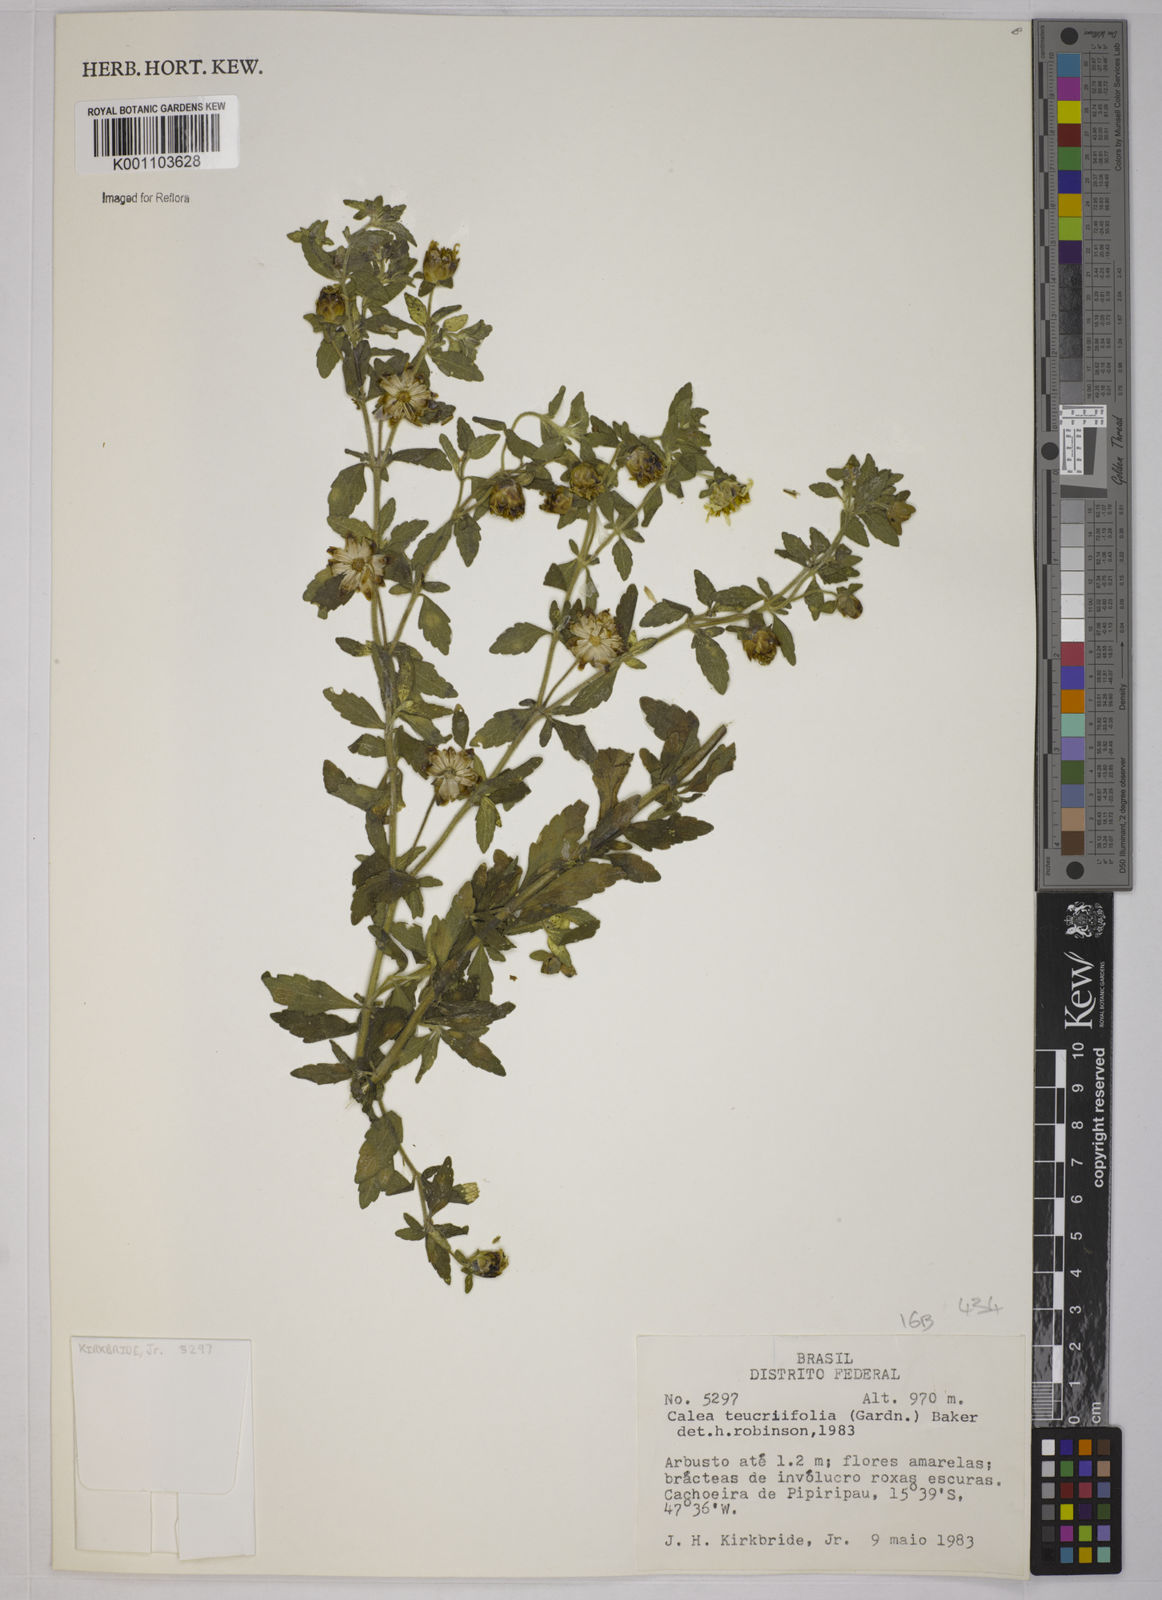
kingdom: Plantae
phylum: Tracheophyta
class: Magnoliopsida
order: Asterales
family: Asteraceae
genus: Calea
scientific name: Calea teucriifolia
